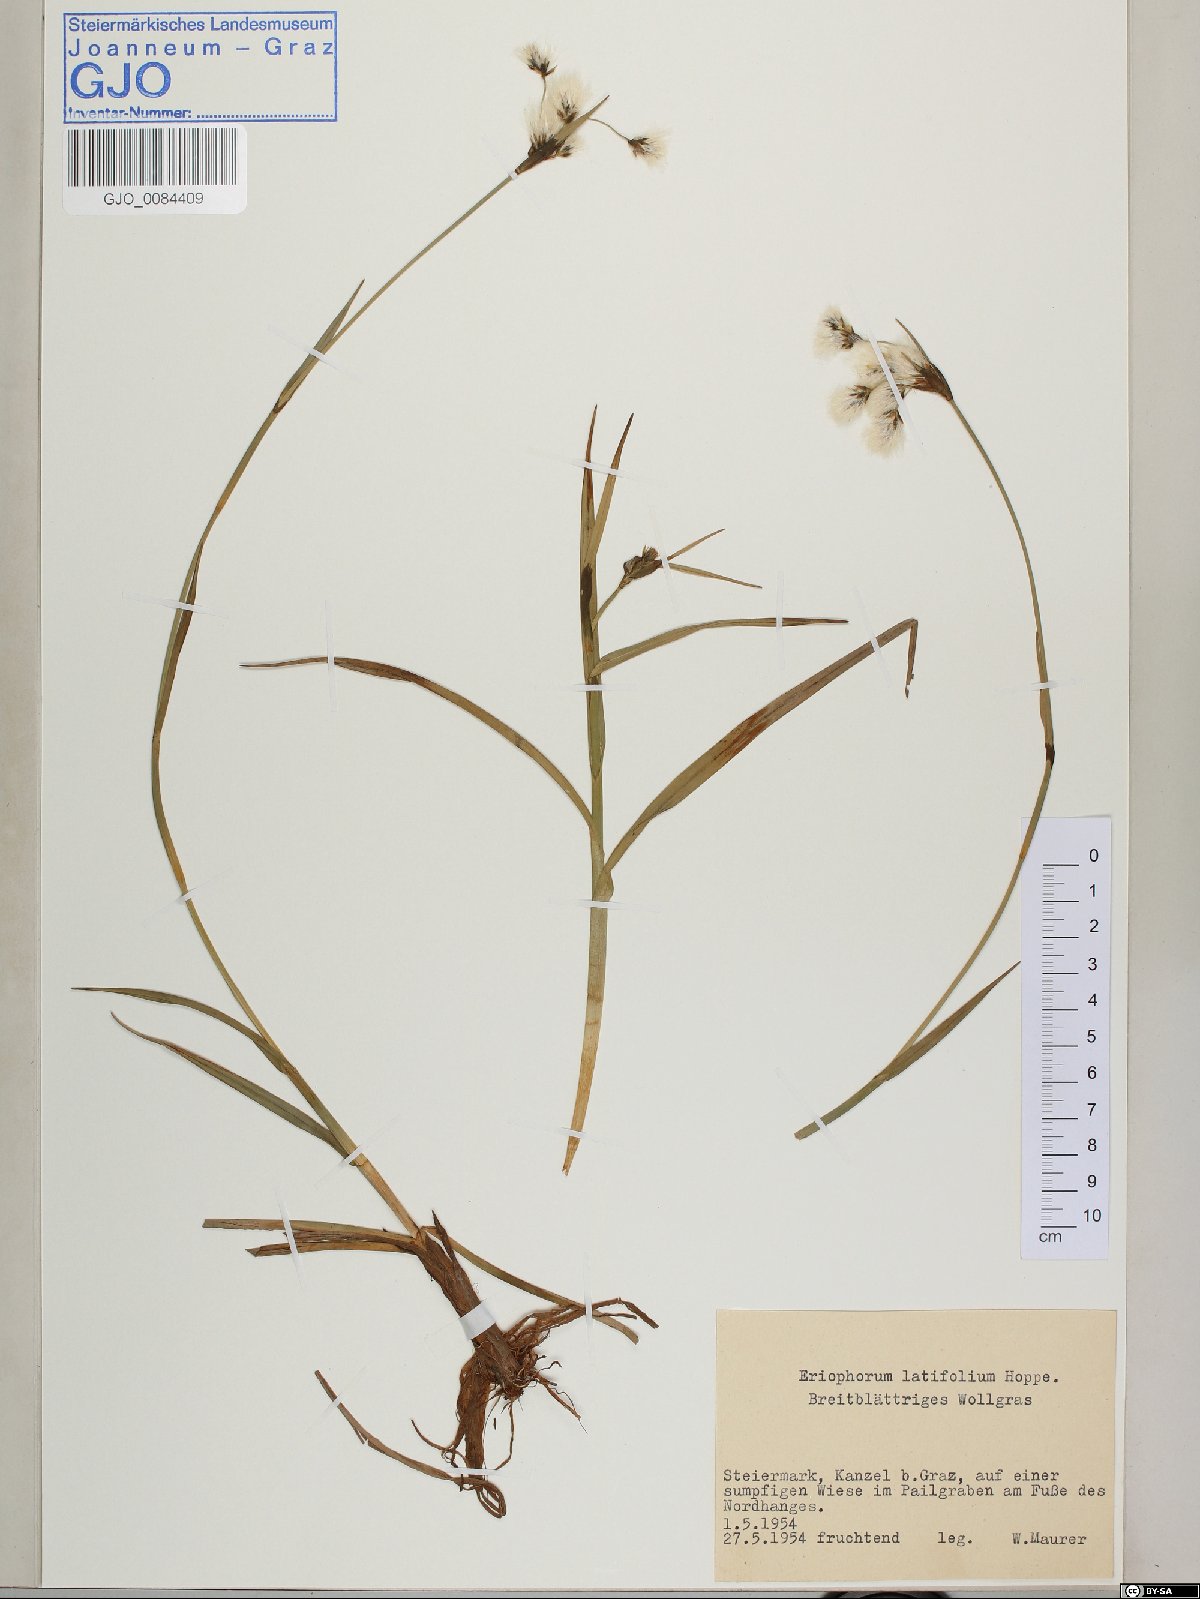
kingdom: Plantae
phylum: Tracheophyta
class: Liliopsida
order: Poales
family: Cyperaceae
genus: Eriophorum
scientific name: Eriophorum latifolium
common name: Broad-leaved cottongrass
